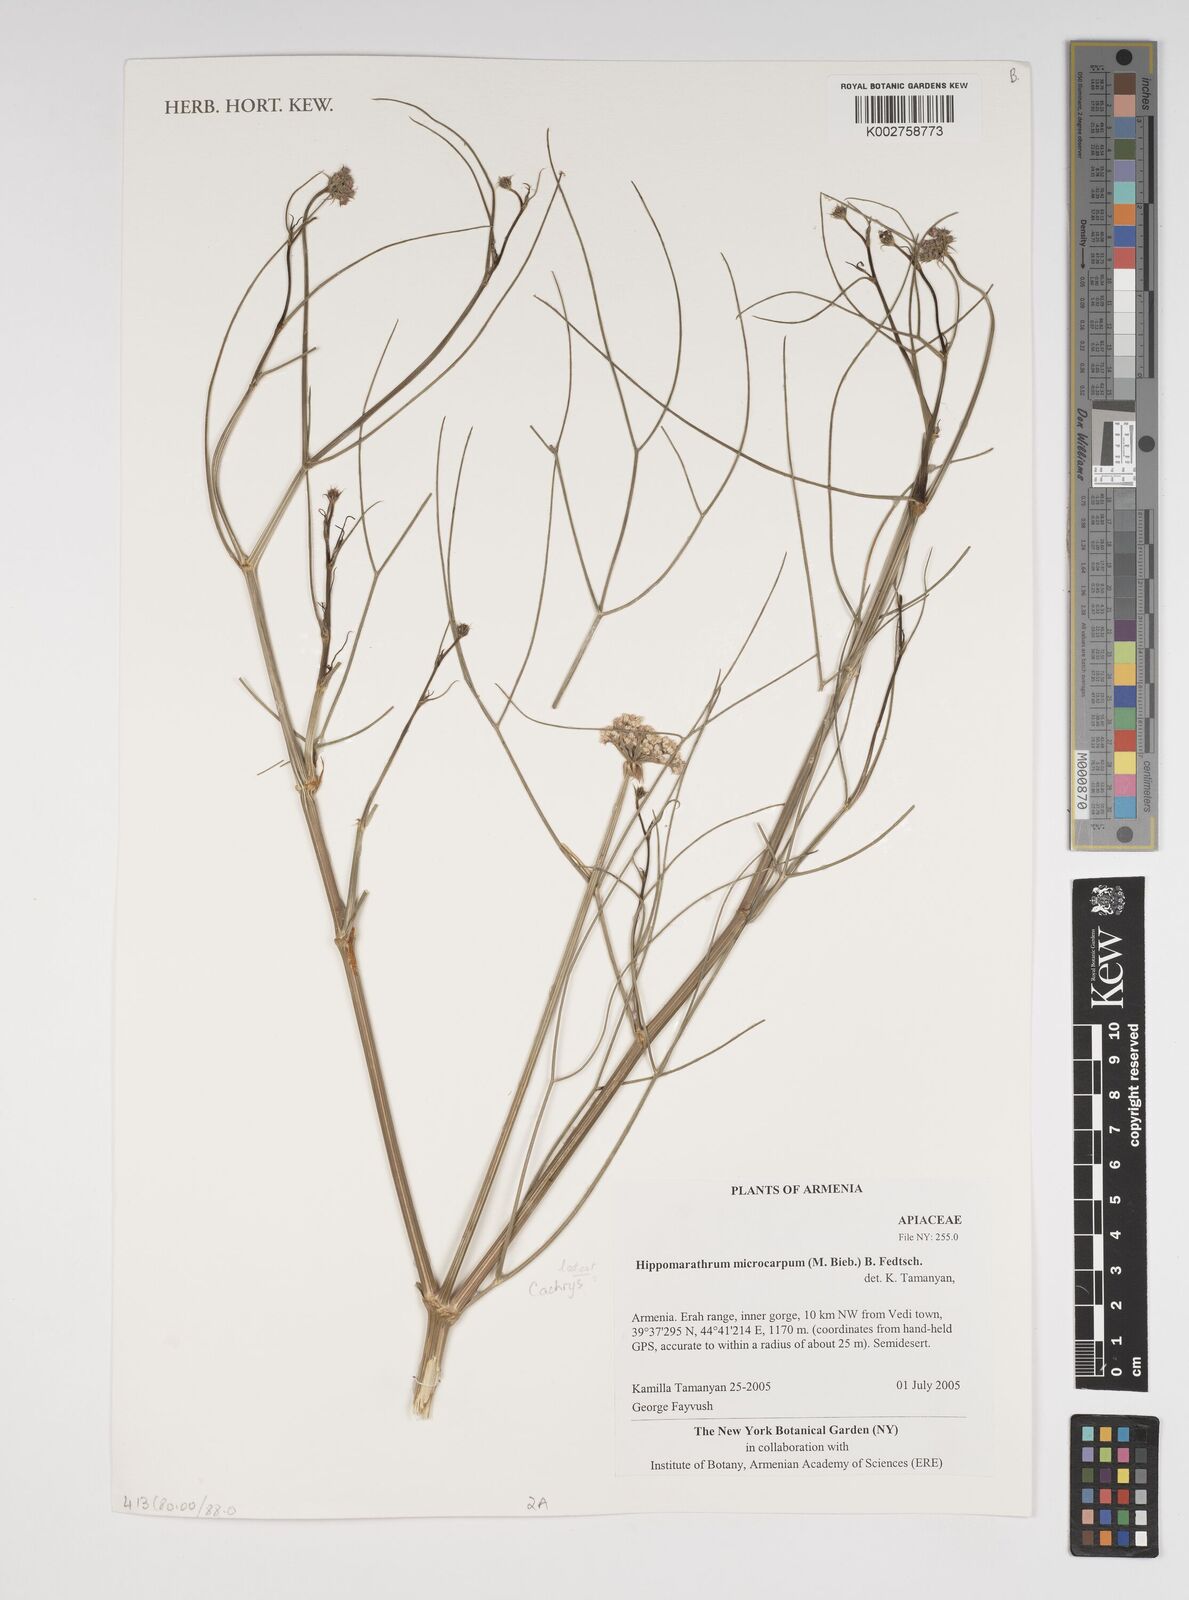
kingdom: Plantae
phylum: Tracheophyta
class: Magnoliopsida
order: Apiales
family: Apiaceae
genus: Bilacunaria
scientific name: Bilacunaria microcarpa
